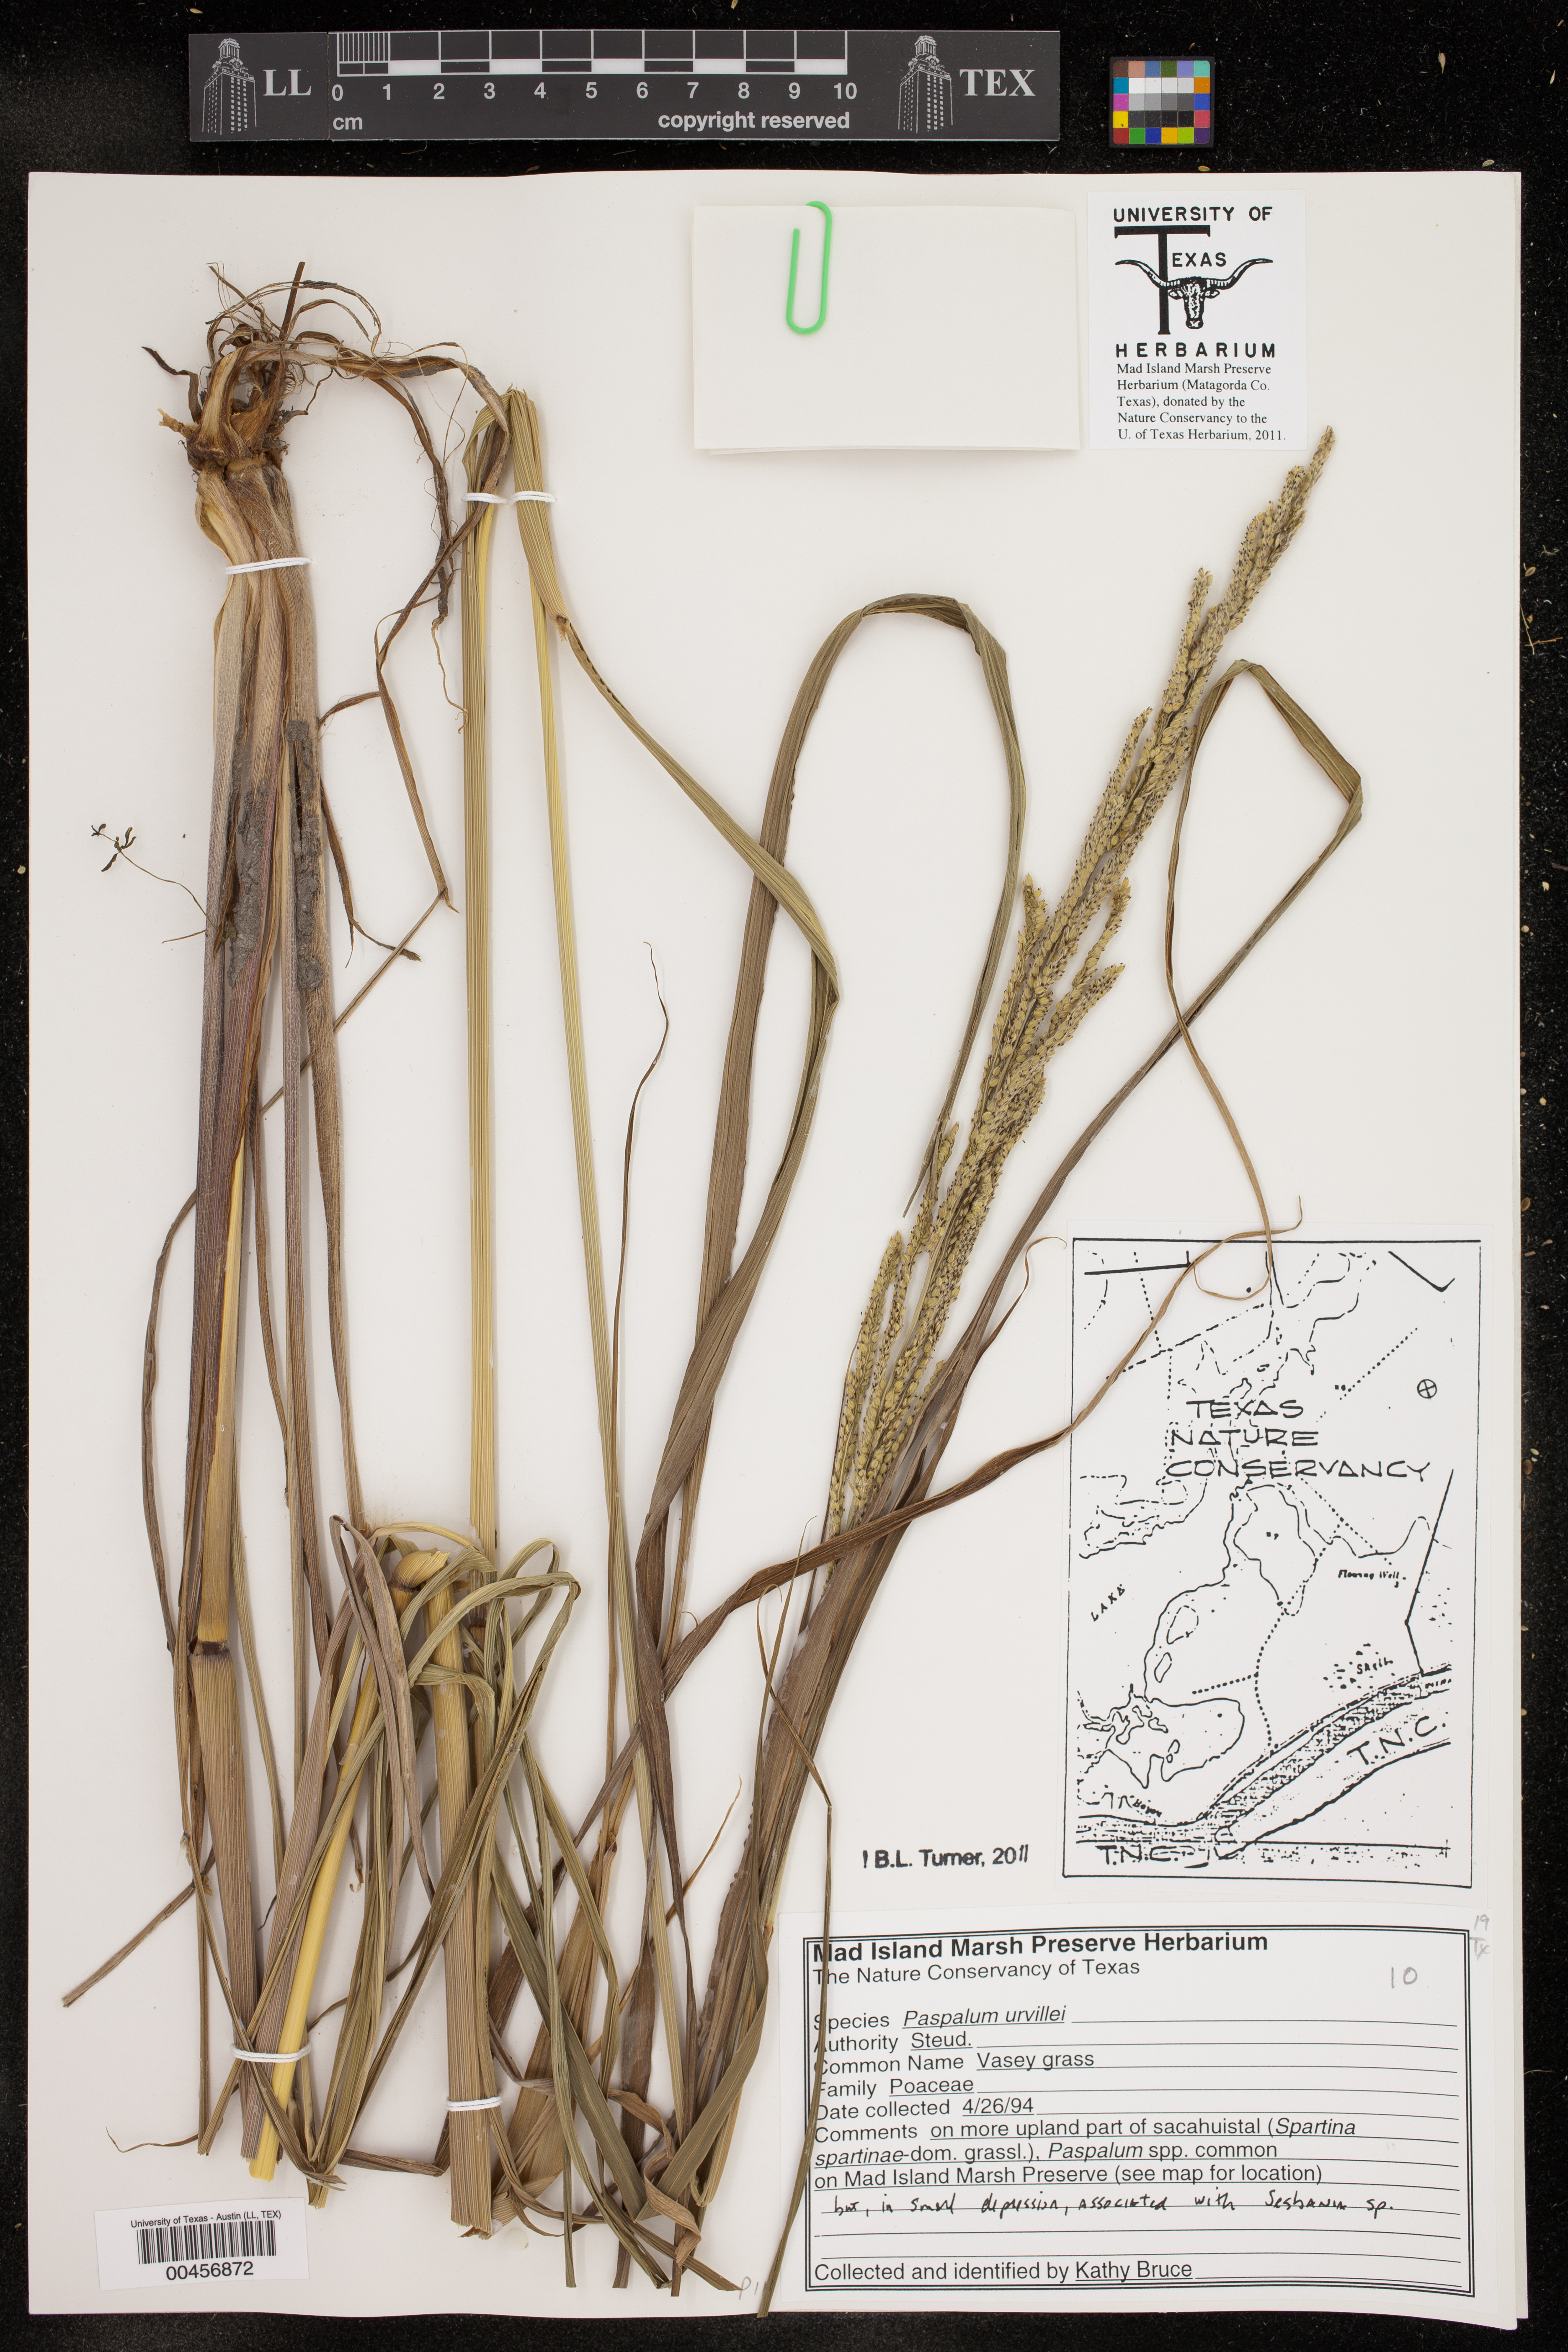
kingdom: Plantae
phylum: Tracheophyta
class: Liliopsida
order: Poales
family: Poaceae
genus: Paspalum
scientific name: Paspalum urvillei
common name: Vasey's grass
